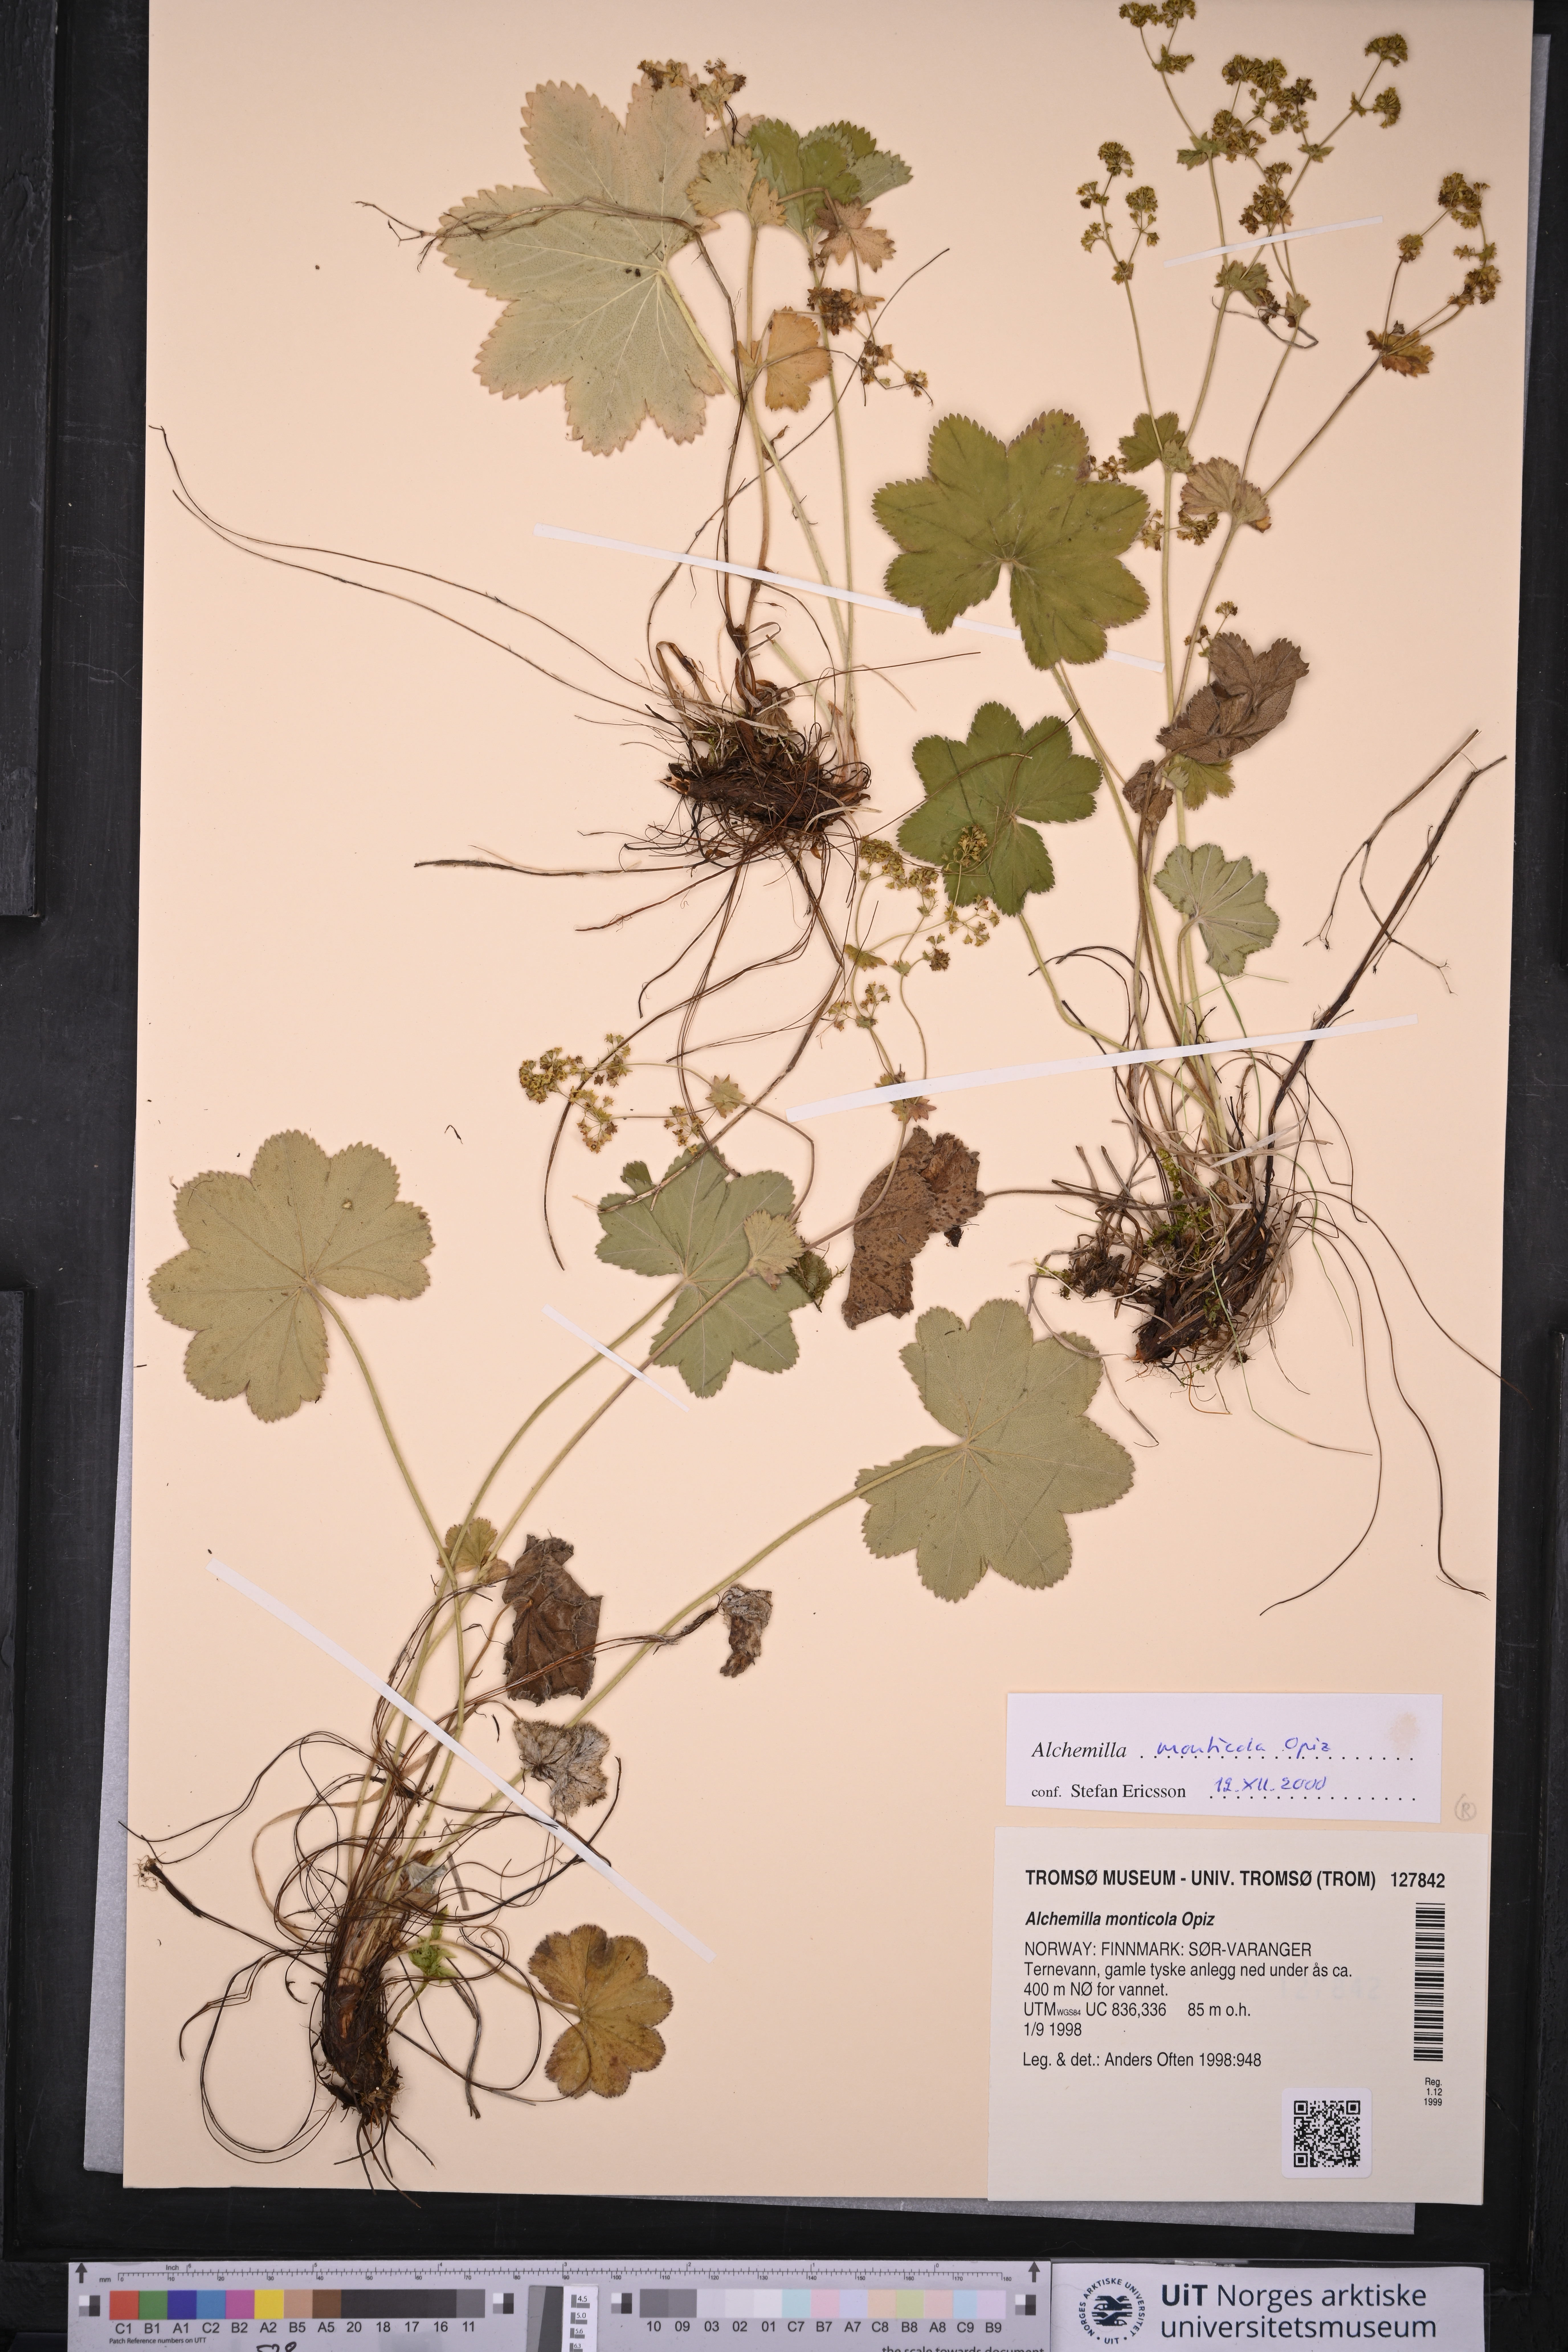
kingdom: Plantae
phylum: Tracheophyta
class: Magnoliopsida
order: Rosales
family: Rosaceae
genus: Alchemilla
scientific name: Alchemilla monticola
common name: Hairy lady's mantle
